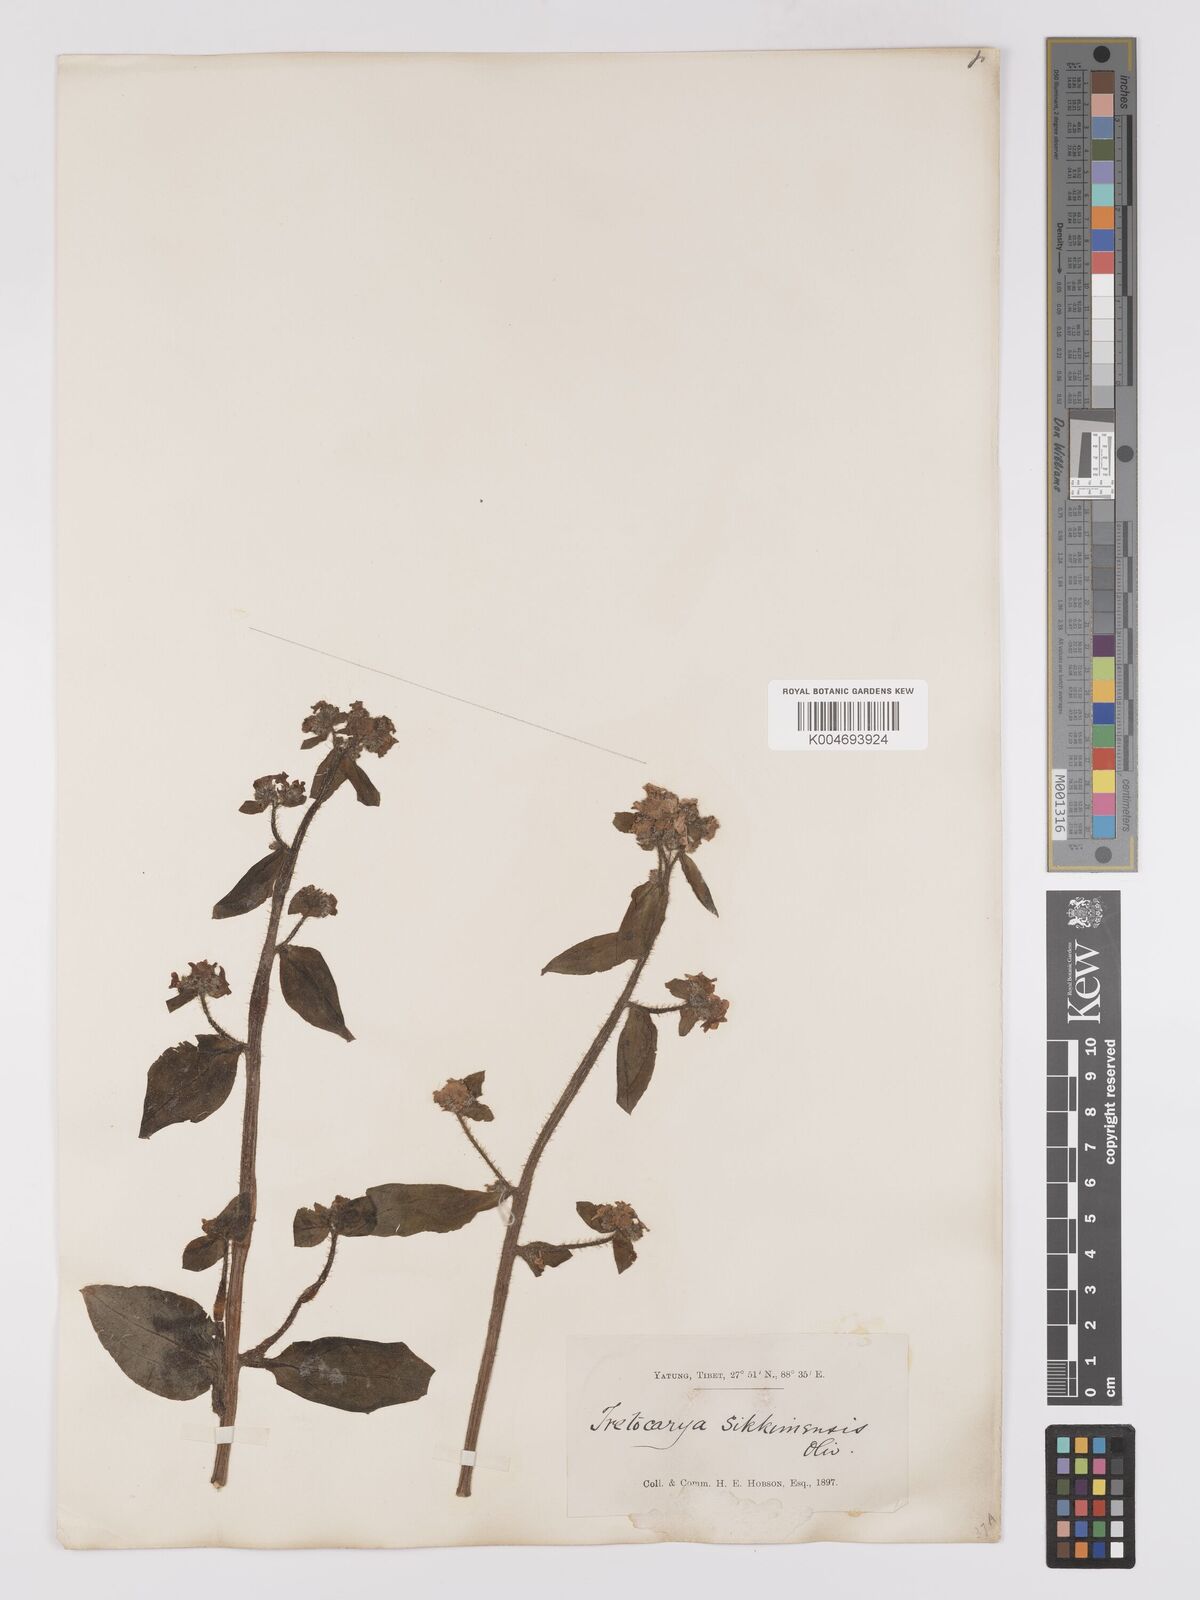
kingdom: Plantae
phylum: Tracheophyta
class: Magnoliopsida
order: Boraginales
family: Boraginaceae
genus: Microula
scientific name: Microula sikkimensis
